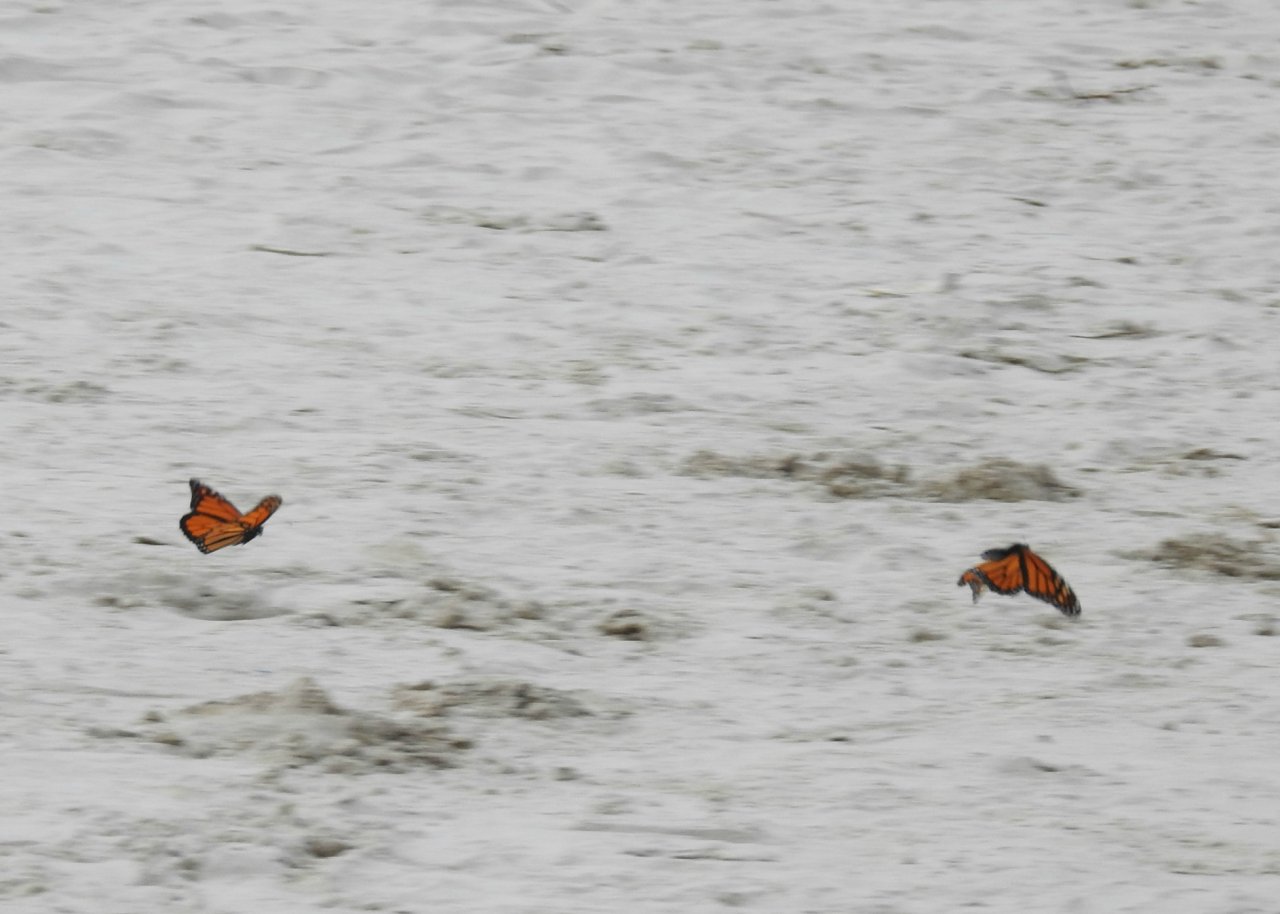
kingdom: Animalia
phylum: Arthropoda
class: Insecta
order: Lepidoptera
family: Nymphalidae
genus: Danaus
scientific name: Danaus plexippus
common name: Monarch
